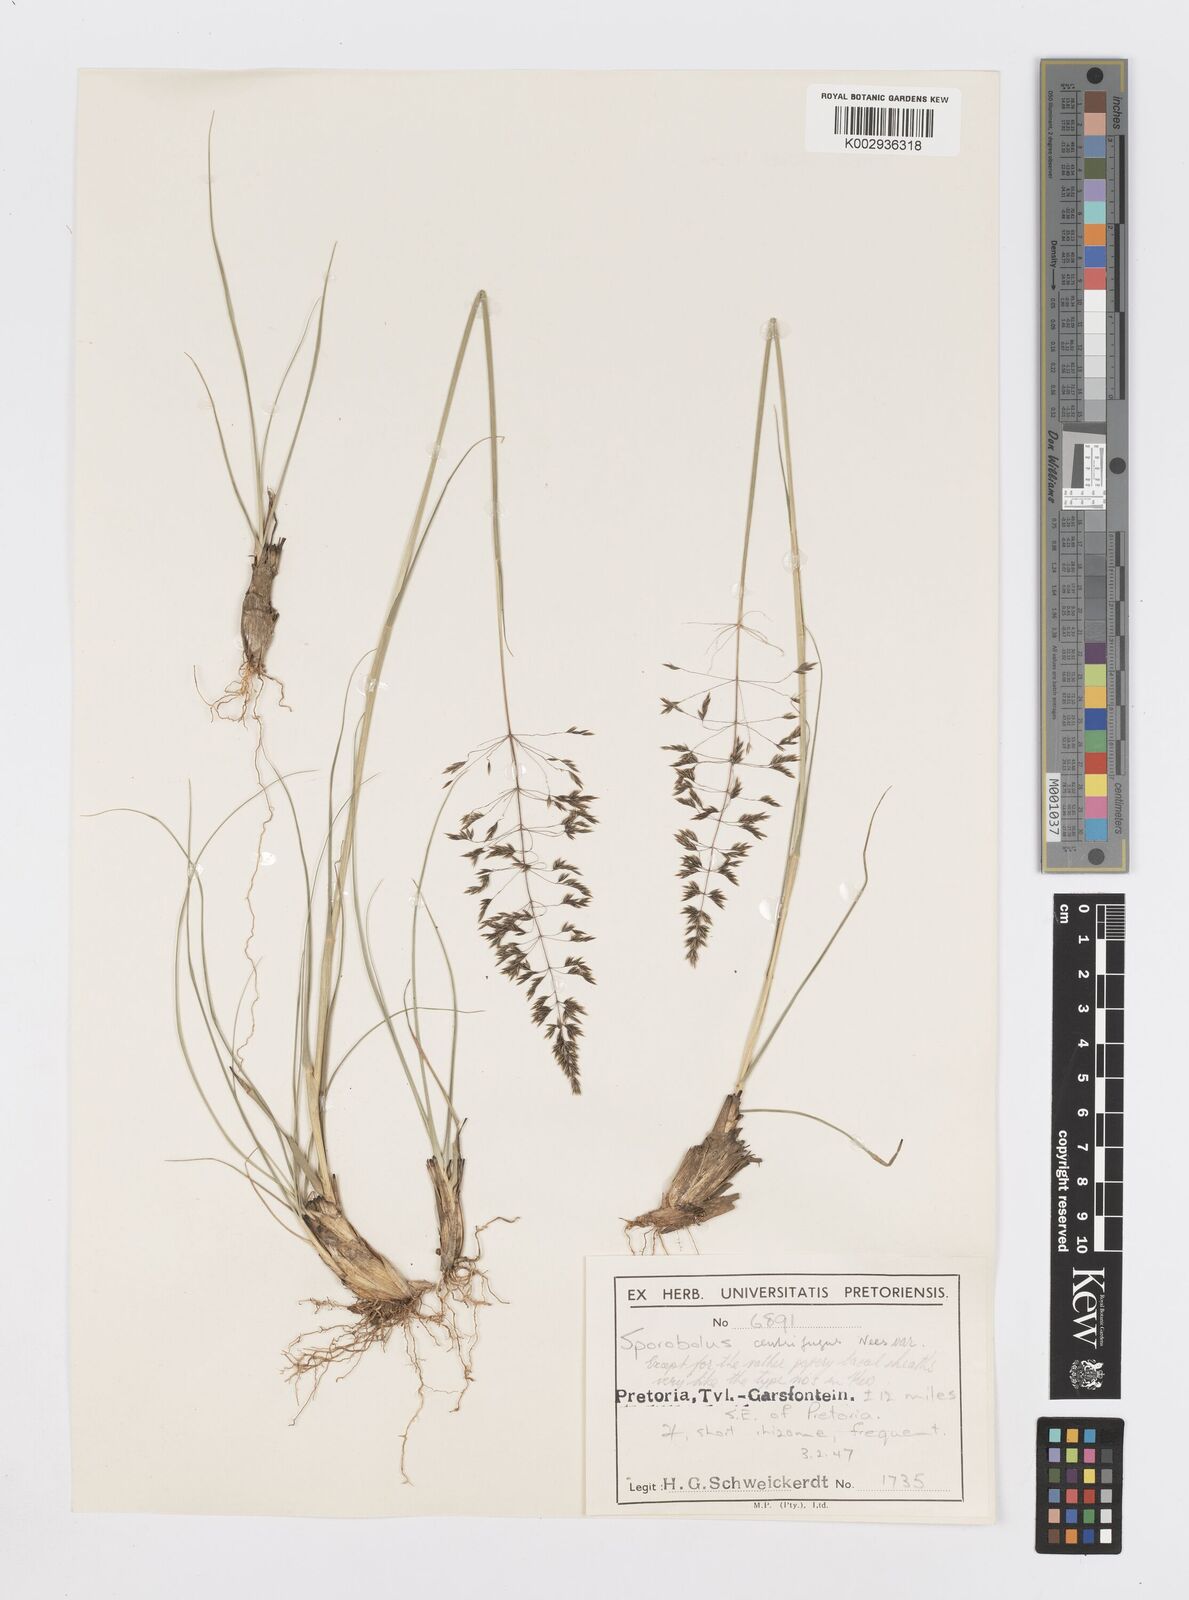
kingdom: Plantae
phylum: Tracheophyta
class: Liliopsida
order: Poales
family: Poaceae
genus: Sporobolus
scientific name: Sporobolus centrifugus
